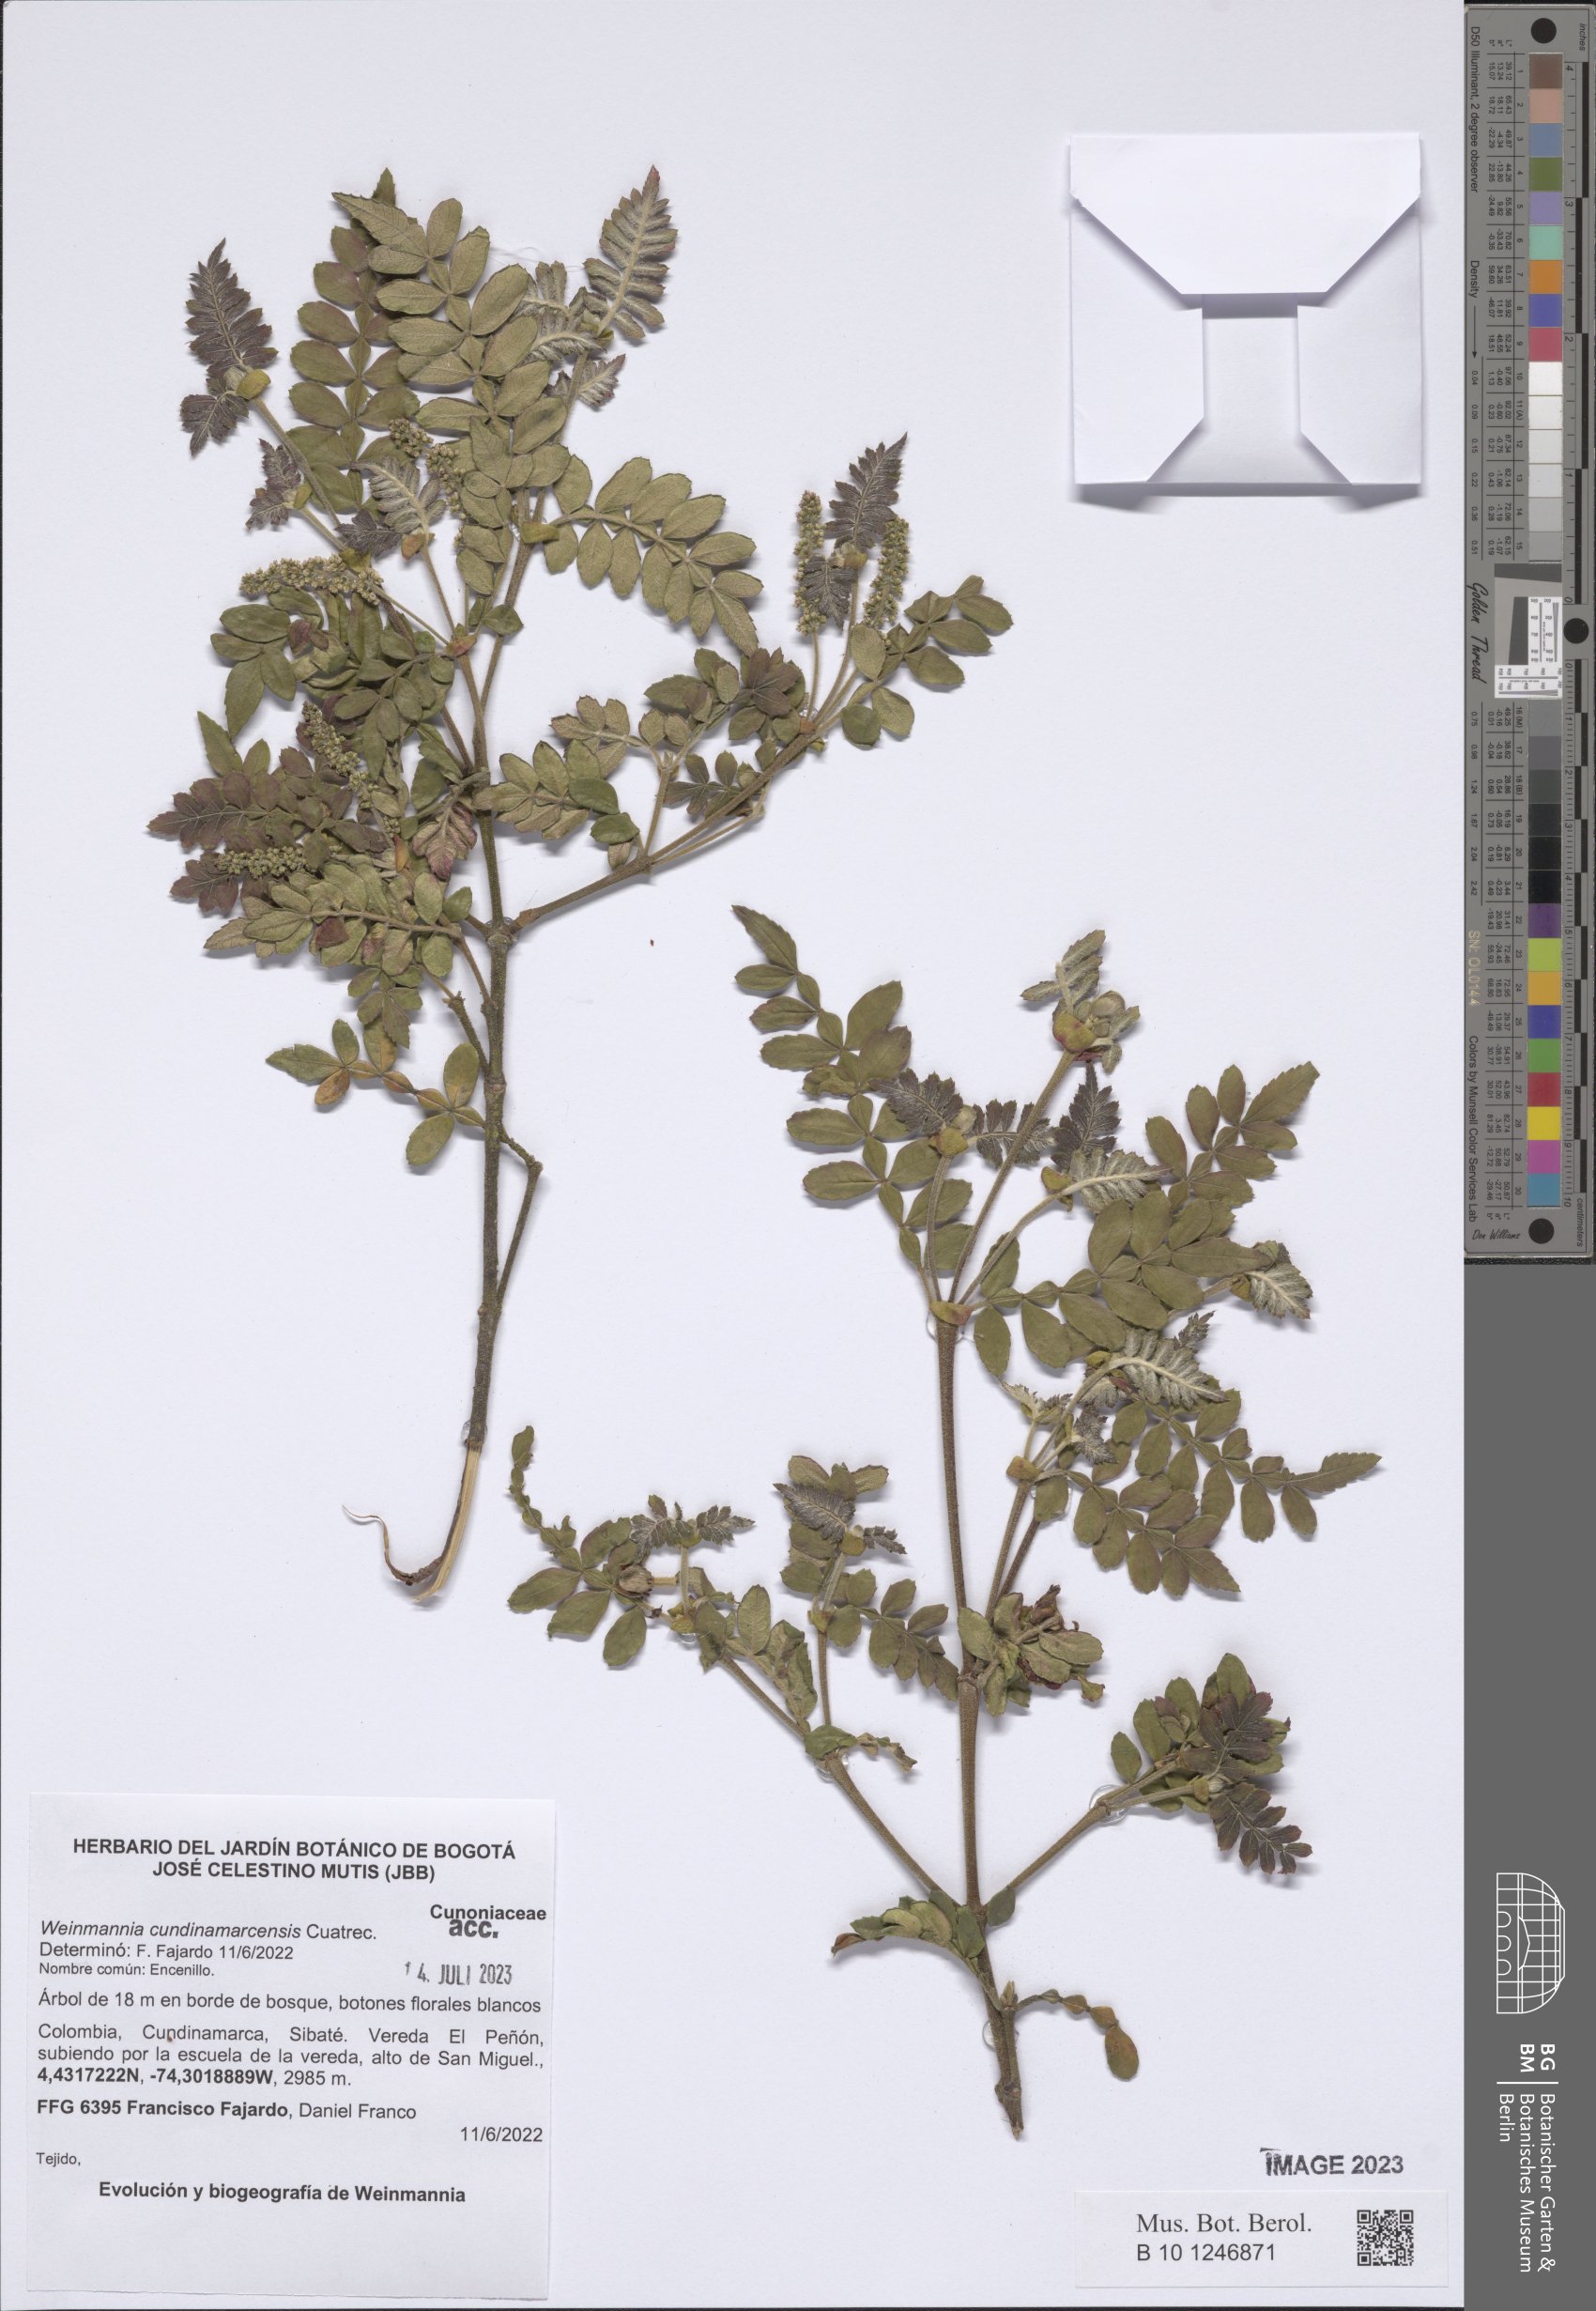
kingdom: Plantae
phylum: Tracheophyta
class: Magnoliopsida
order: Oxalidales
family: Cunoniaceae
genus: Weinmannia
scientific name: Weinmannia cundinamarcensis
